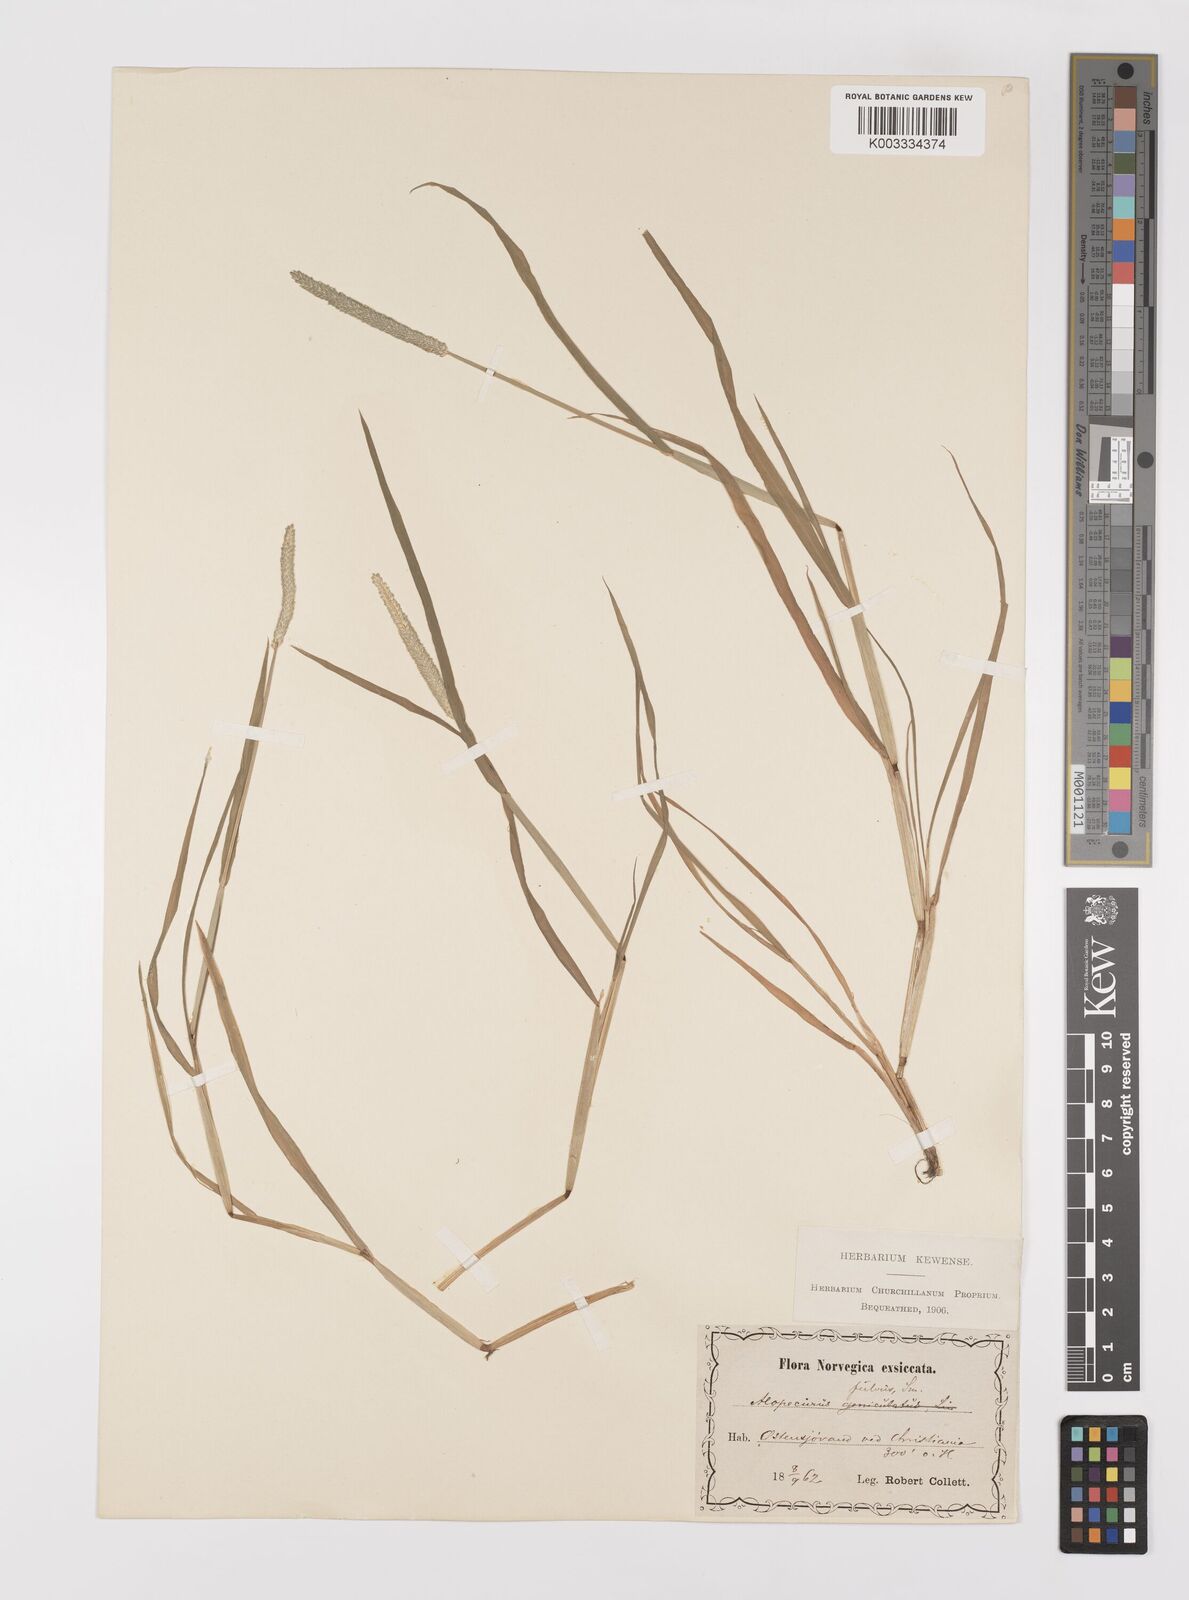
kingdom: Plantae
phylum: Tracheophyta
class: Liliopsida
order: Poales
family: Poaceae
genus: Alopecurus
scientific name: Alopecurus aequalis
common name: Orange foxtail
